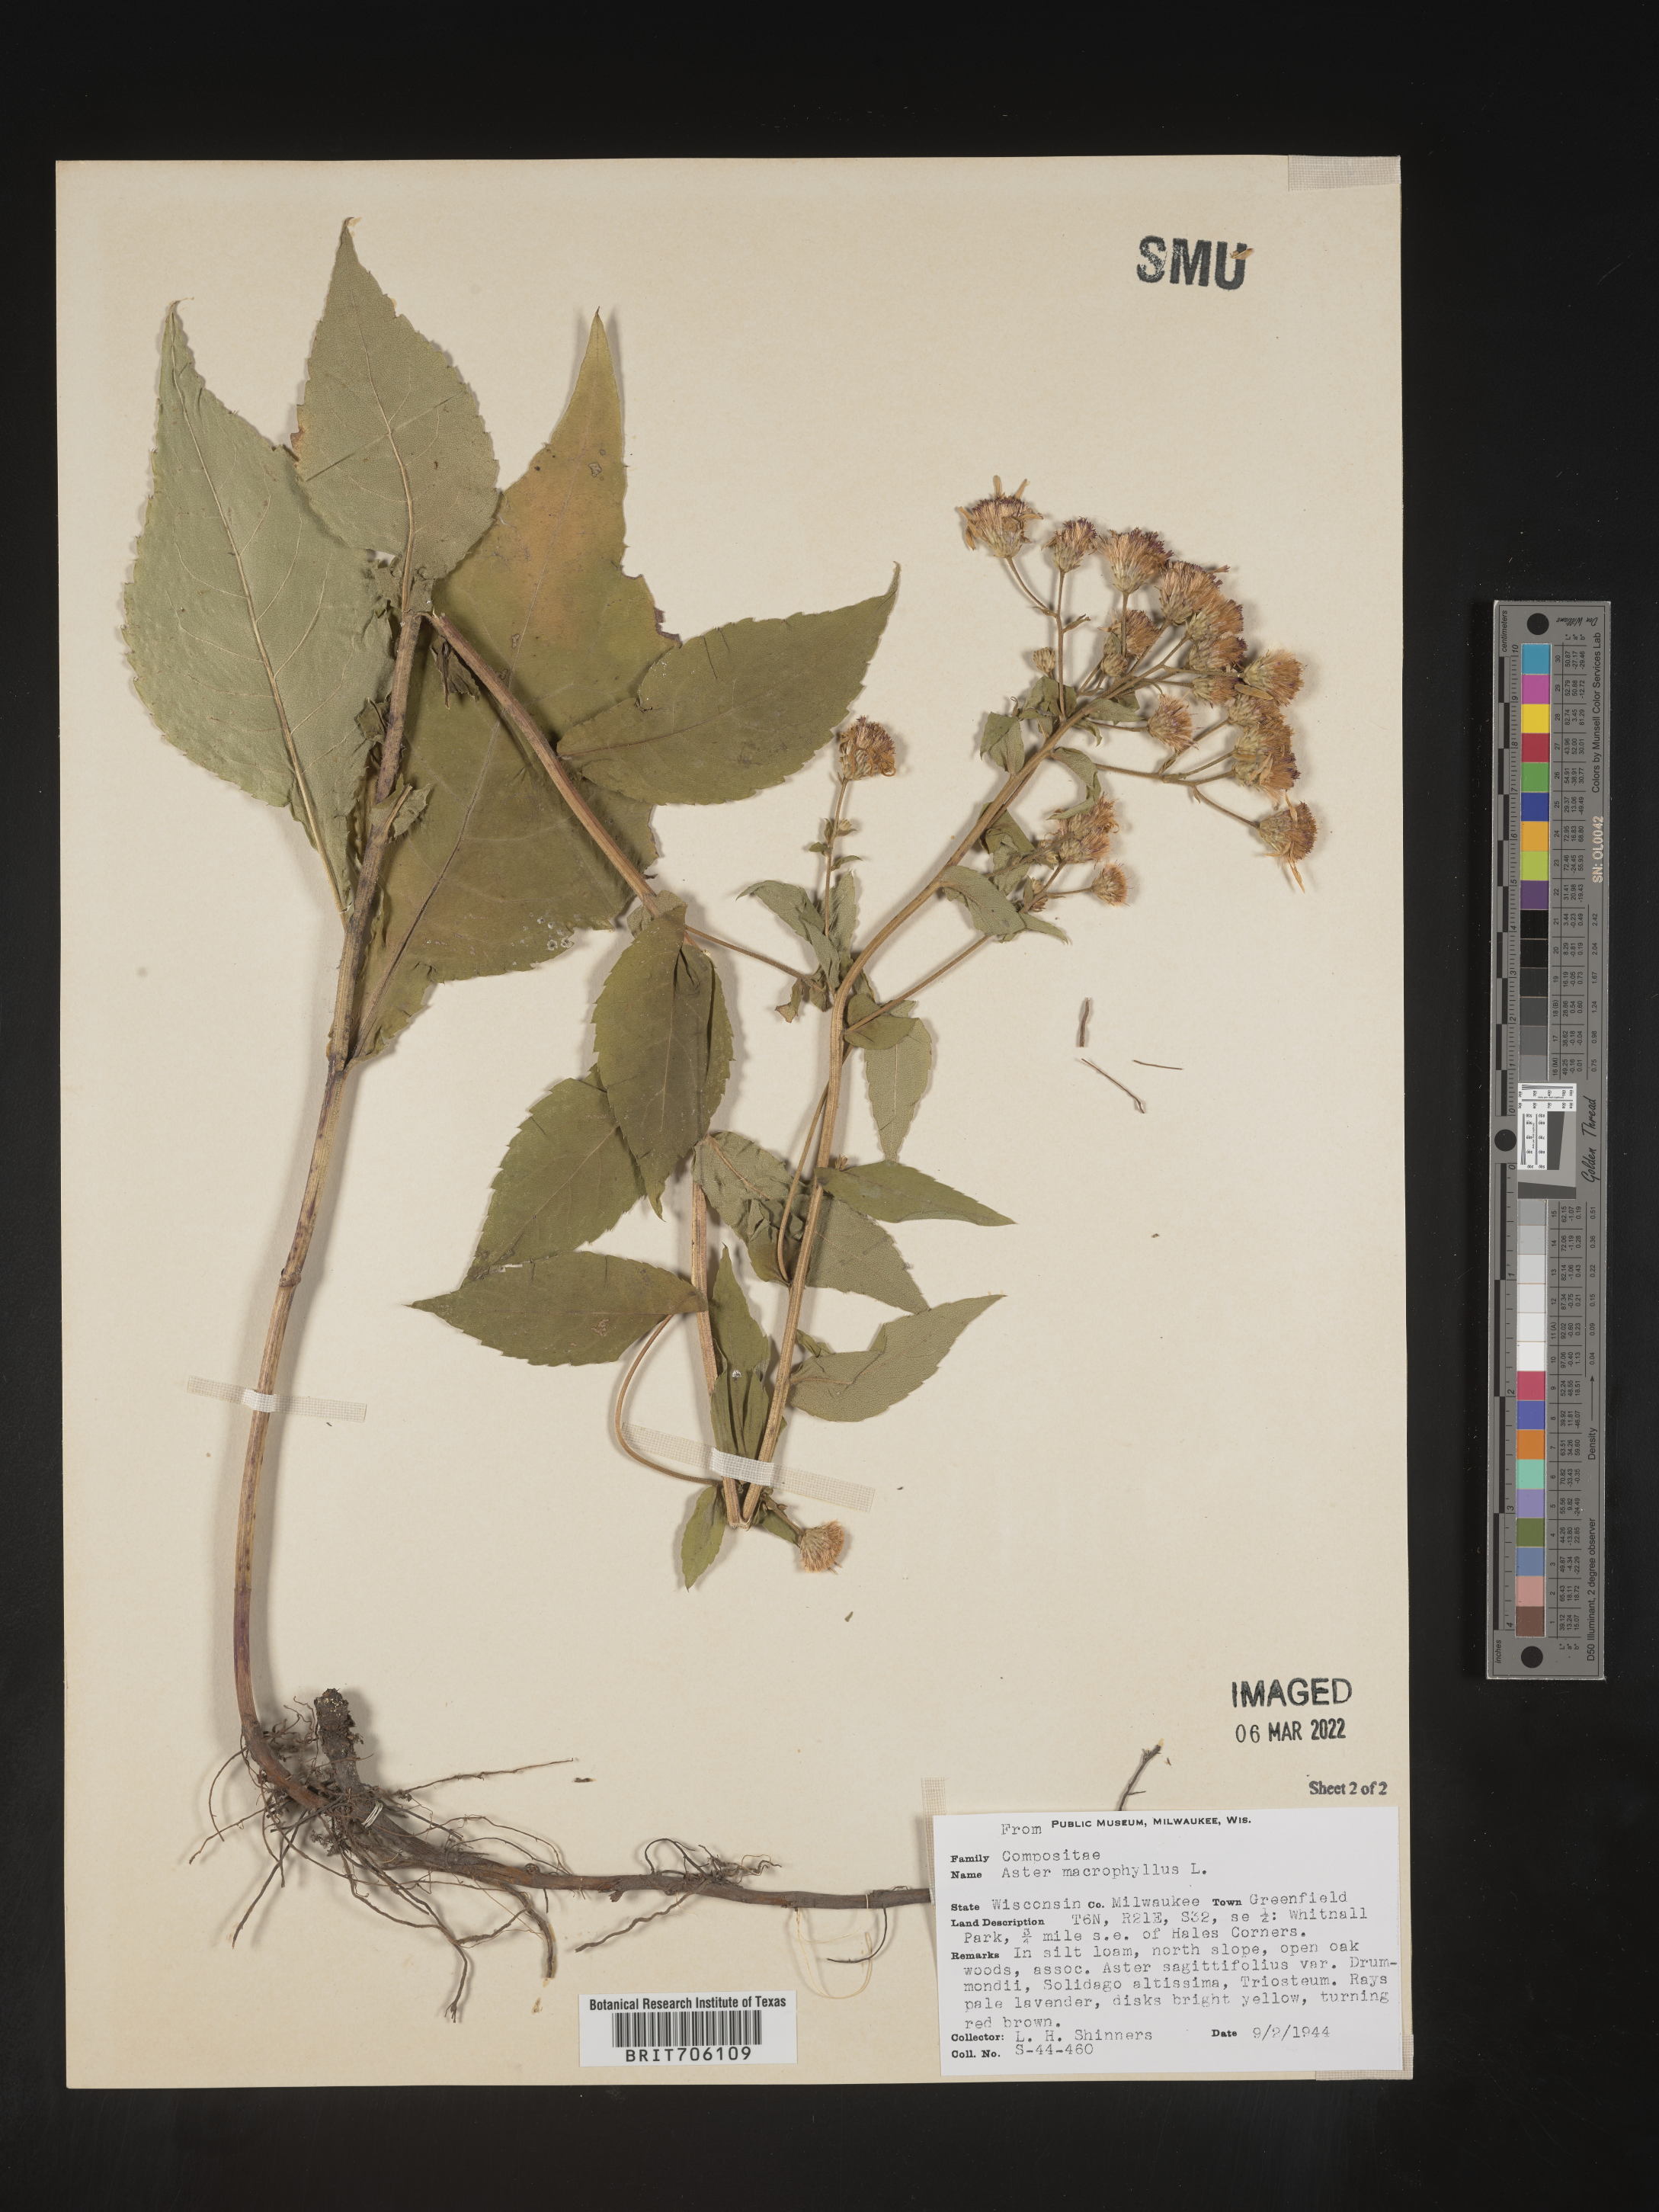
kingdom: Plantae
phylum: Tracheophyta
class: Magnoliopsida
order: Asterales
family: Asteraceae
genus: Eurybia
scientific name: Eurybia macrophylla
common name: Big-leaved aster
